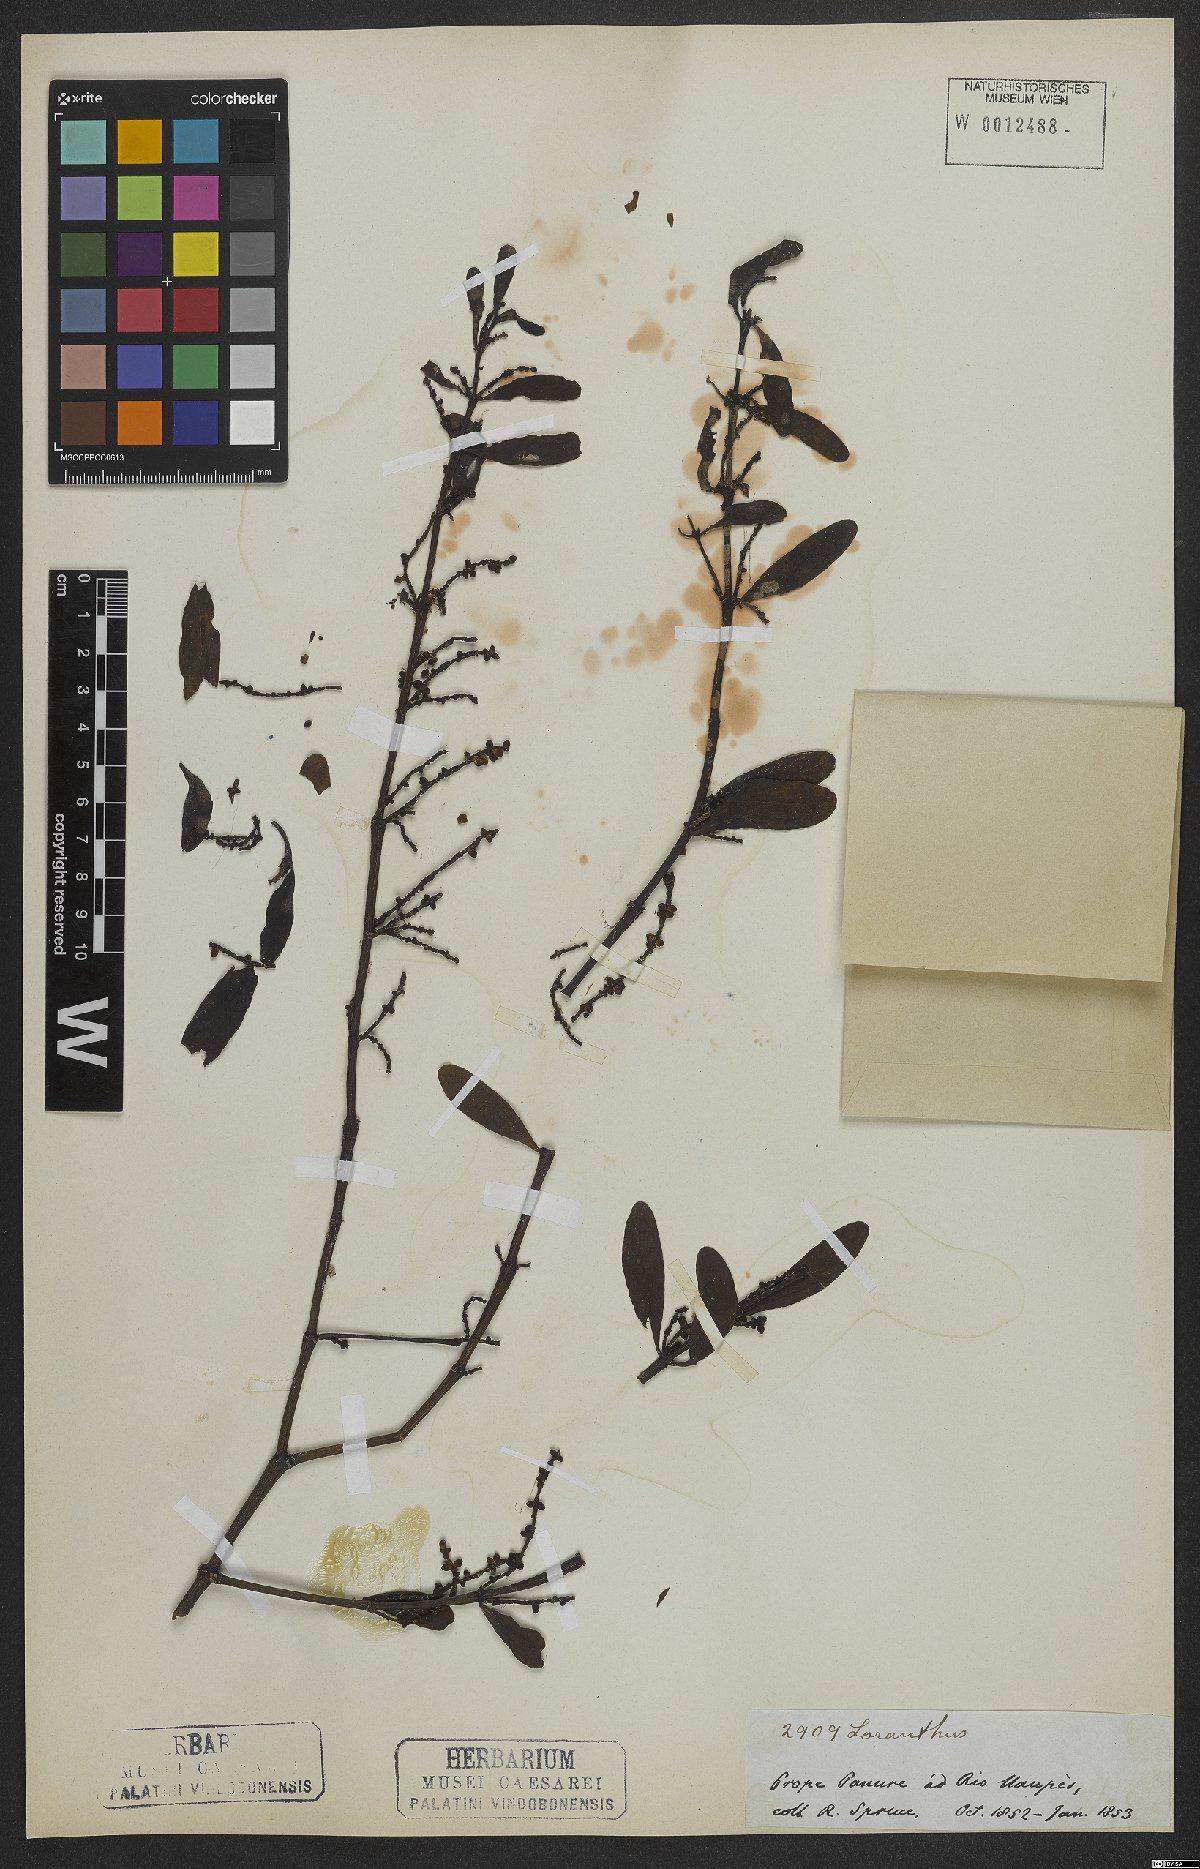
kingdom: Plantae
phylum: Tracheophyta
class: Magnoliopsida
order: Santalales
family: Loranthaceae
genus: Loranthus
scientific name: Loranthus
